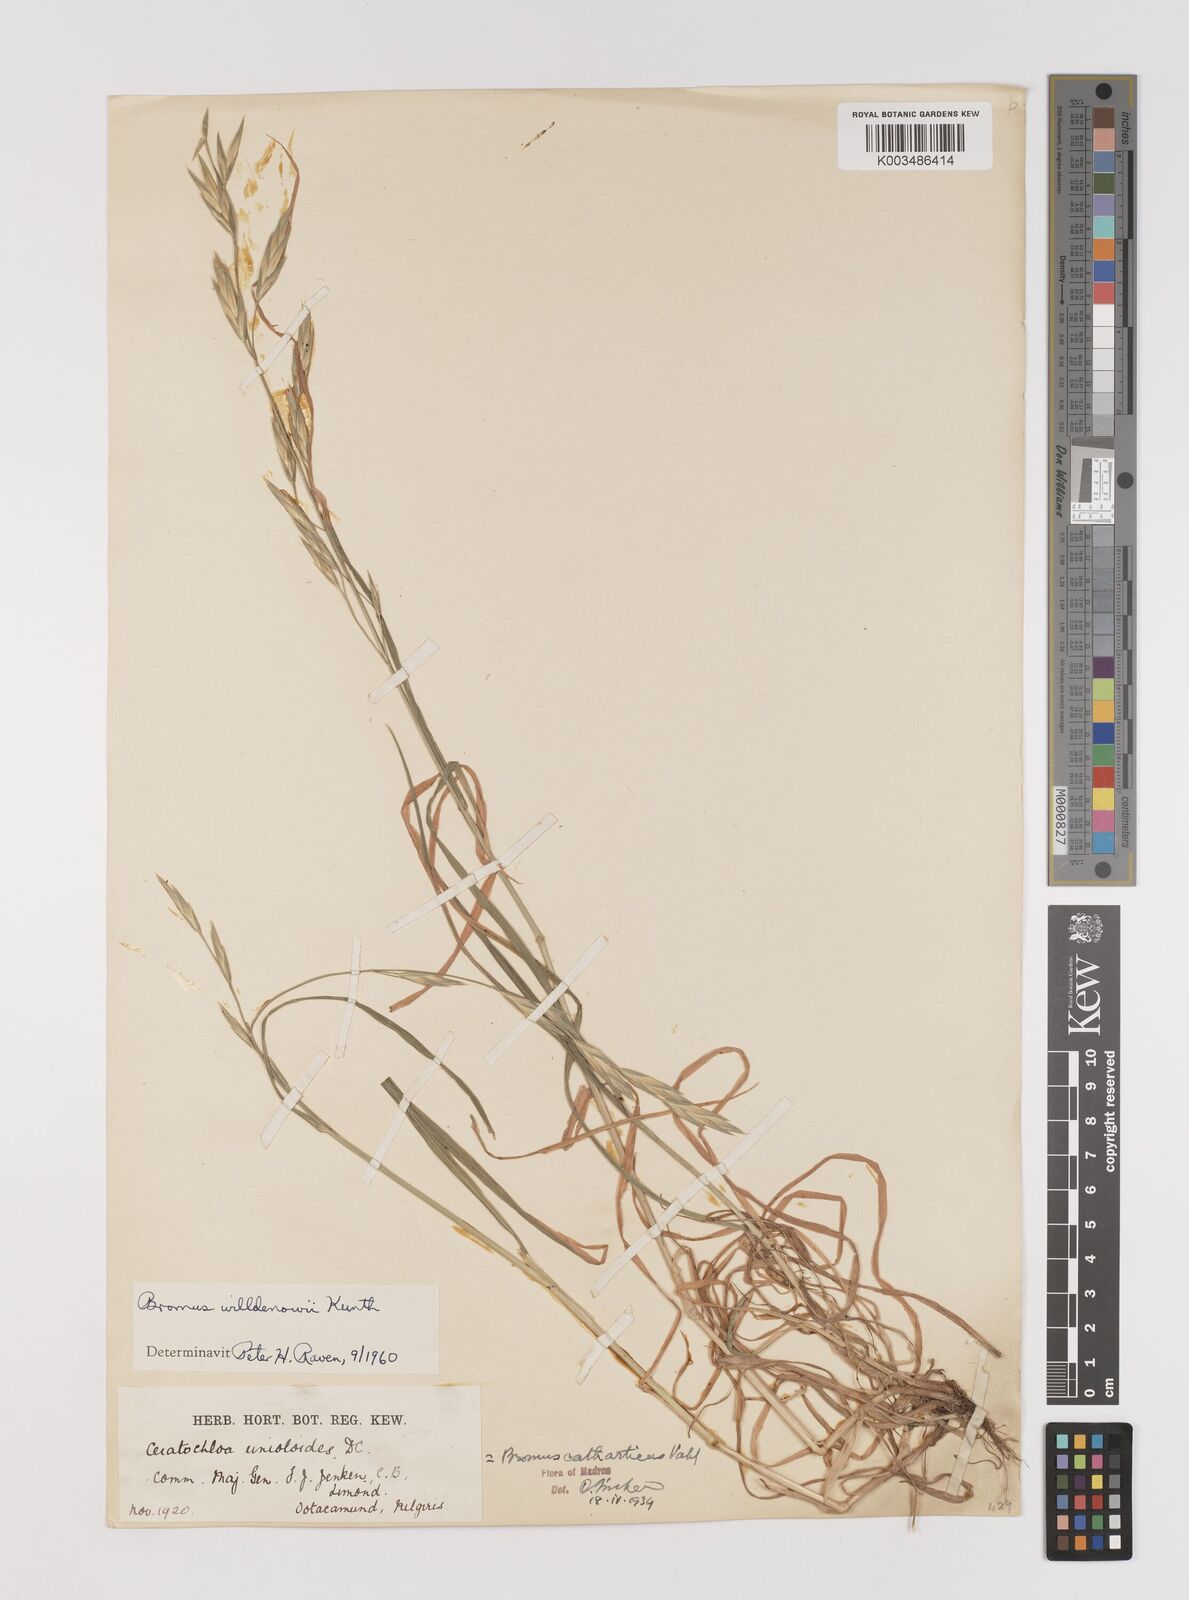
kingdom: Plantae
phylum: Tracheophyta
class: Liliopsida
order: Poales
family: Poaceae
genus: Bromus
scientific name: Bromus catharticus
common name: Rescuegrass
